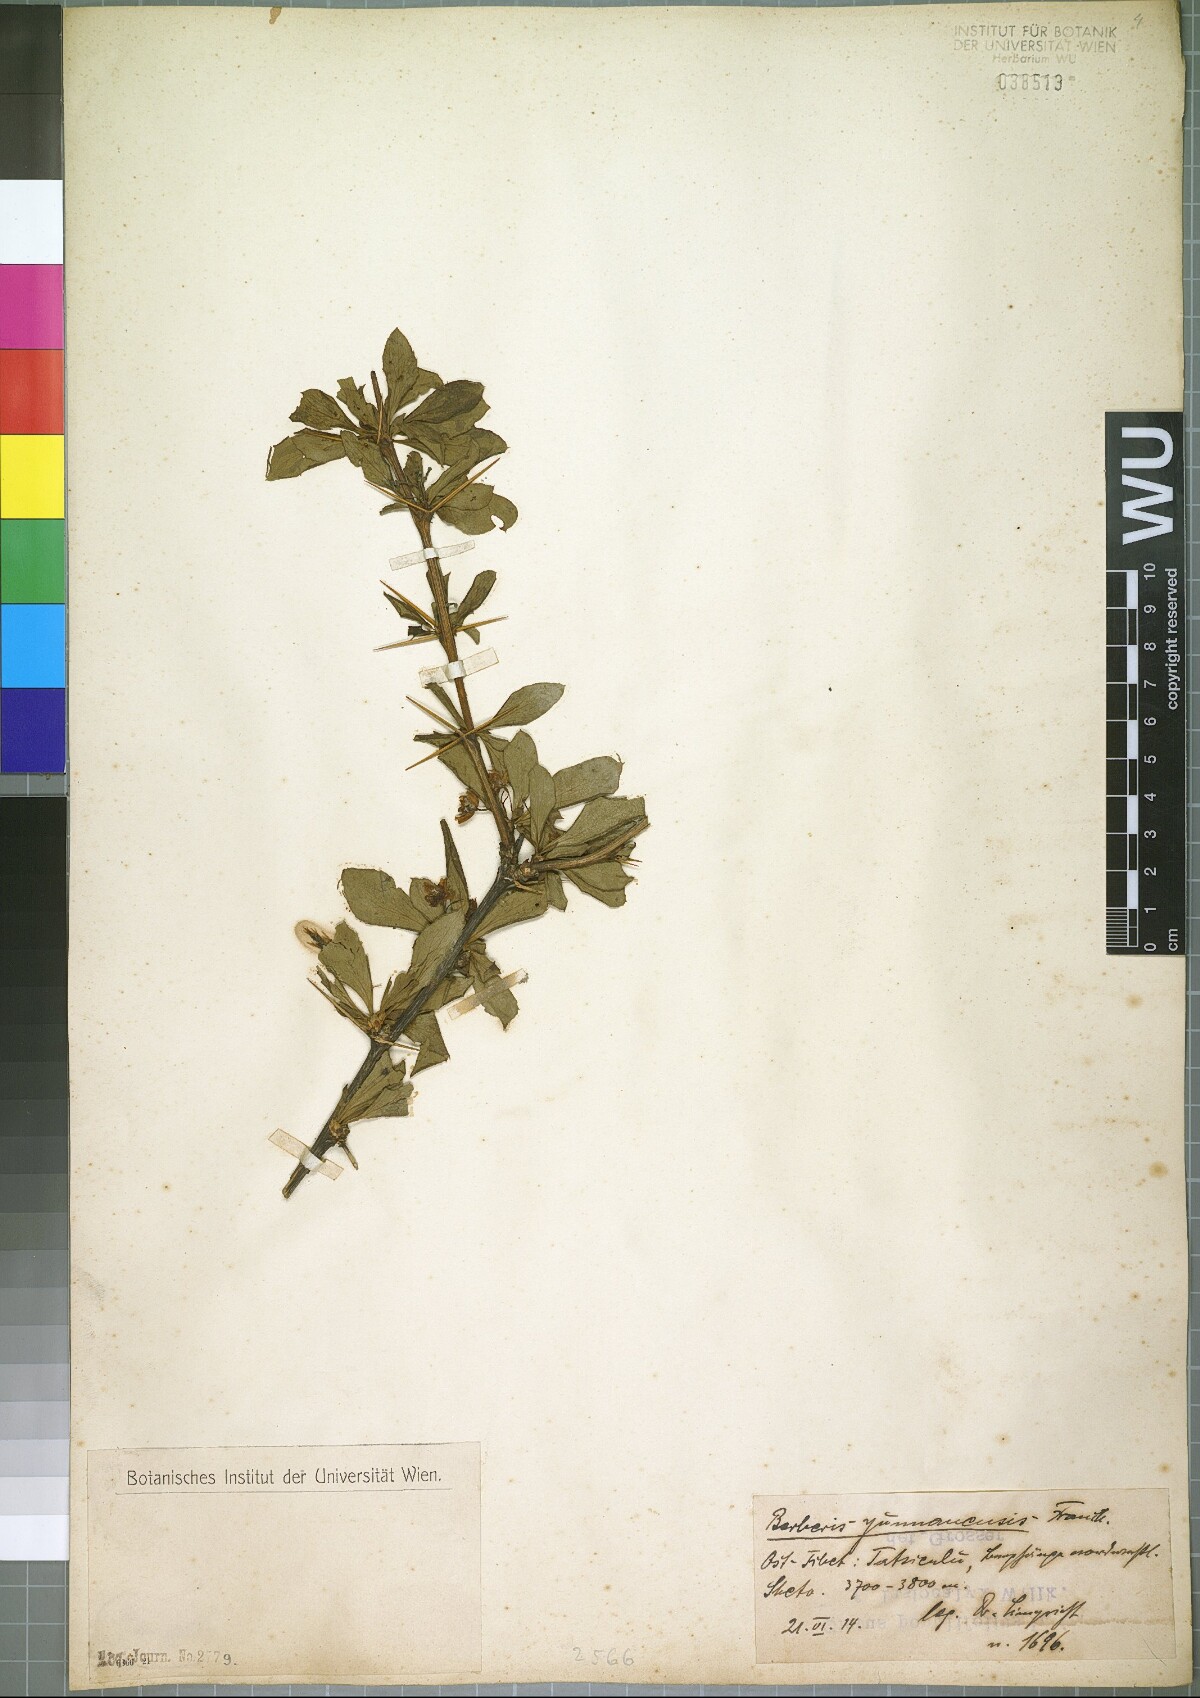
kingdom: Plantae
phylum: Tracheophyta
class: Magnoliopsida
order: Ranunculales
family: Berberidaceae
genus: Berberis
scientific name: Berberis yunnanensis
